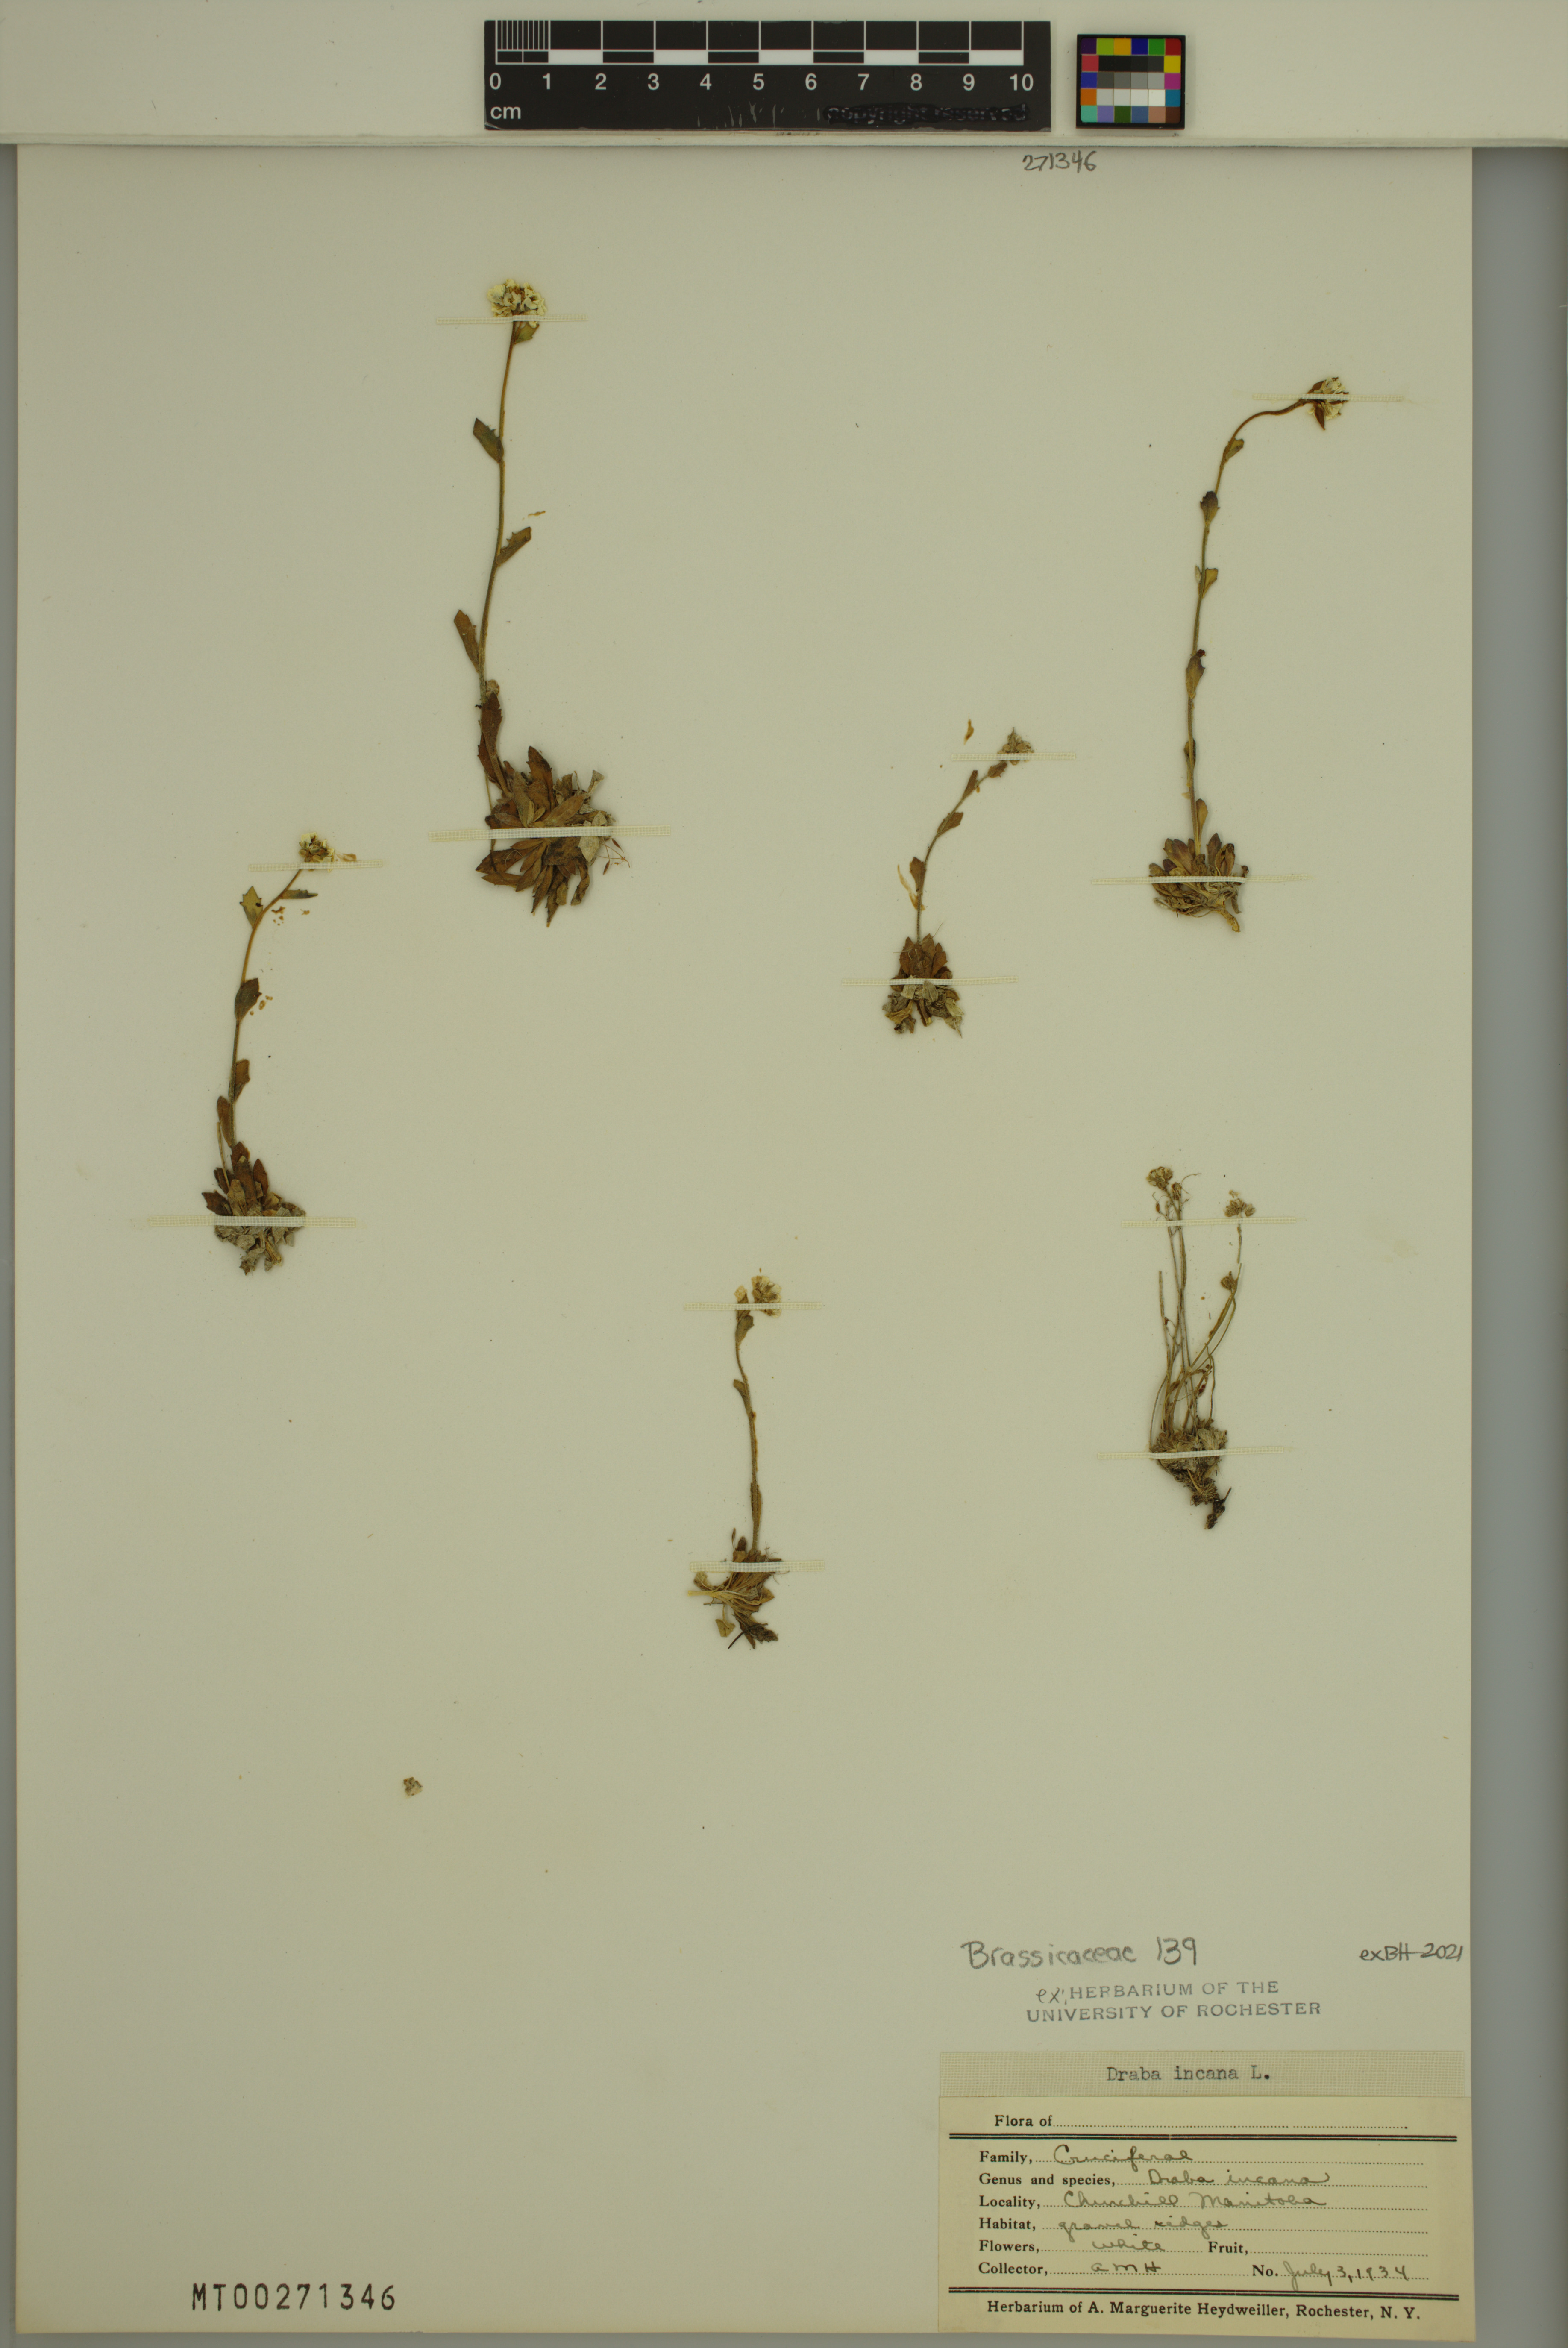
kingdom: Plantae
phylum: Tracheophyta
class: Magnoliopsida
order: Brassicales
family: Brassicaceae
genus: Draba
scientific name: Draba incana
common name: Hoary whitlow-grass
